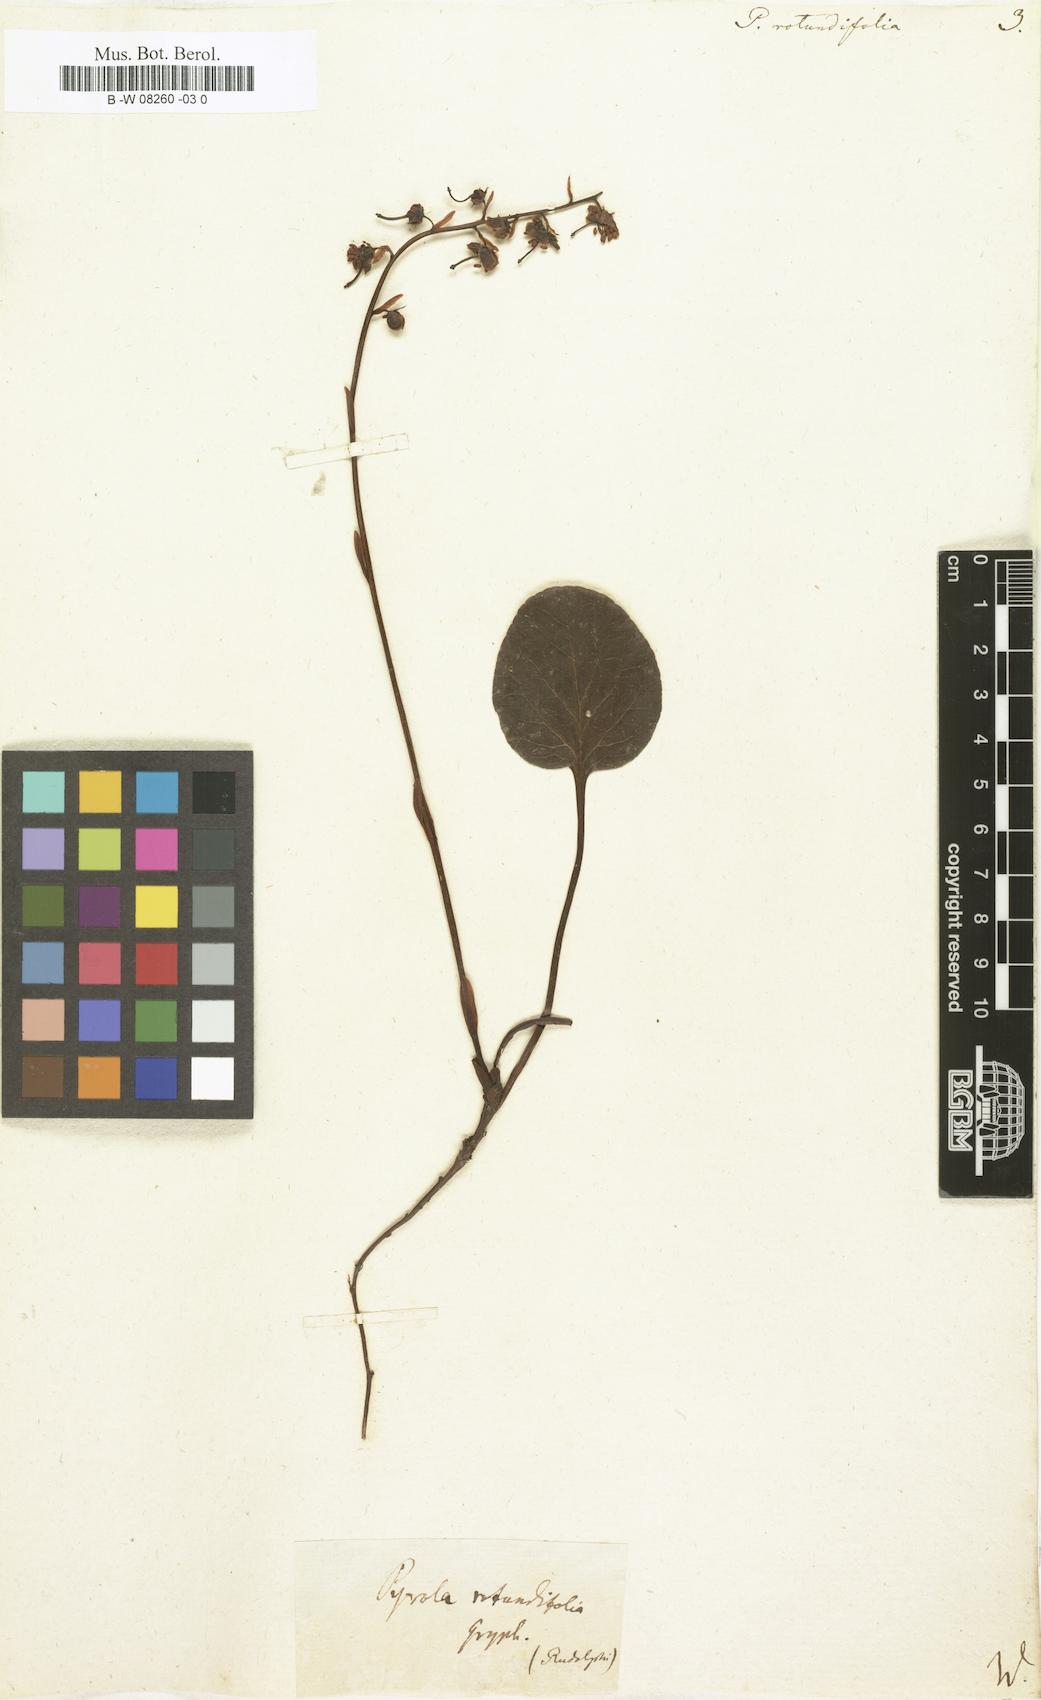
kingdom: Plantae
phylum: Tracheophyta
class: Magnoliopsida
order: Ericales
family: Ericaceae
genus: Pyrola
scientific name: Pyrola rotundifolia
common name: Round-leaved wintergreen
